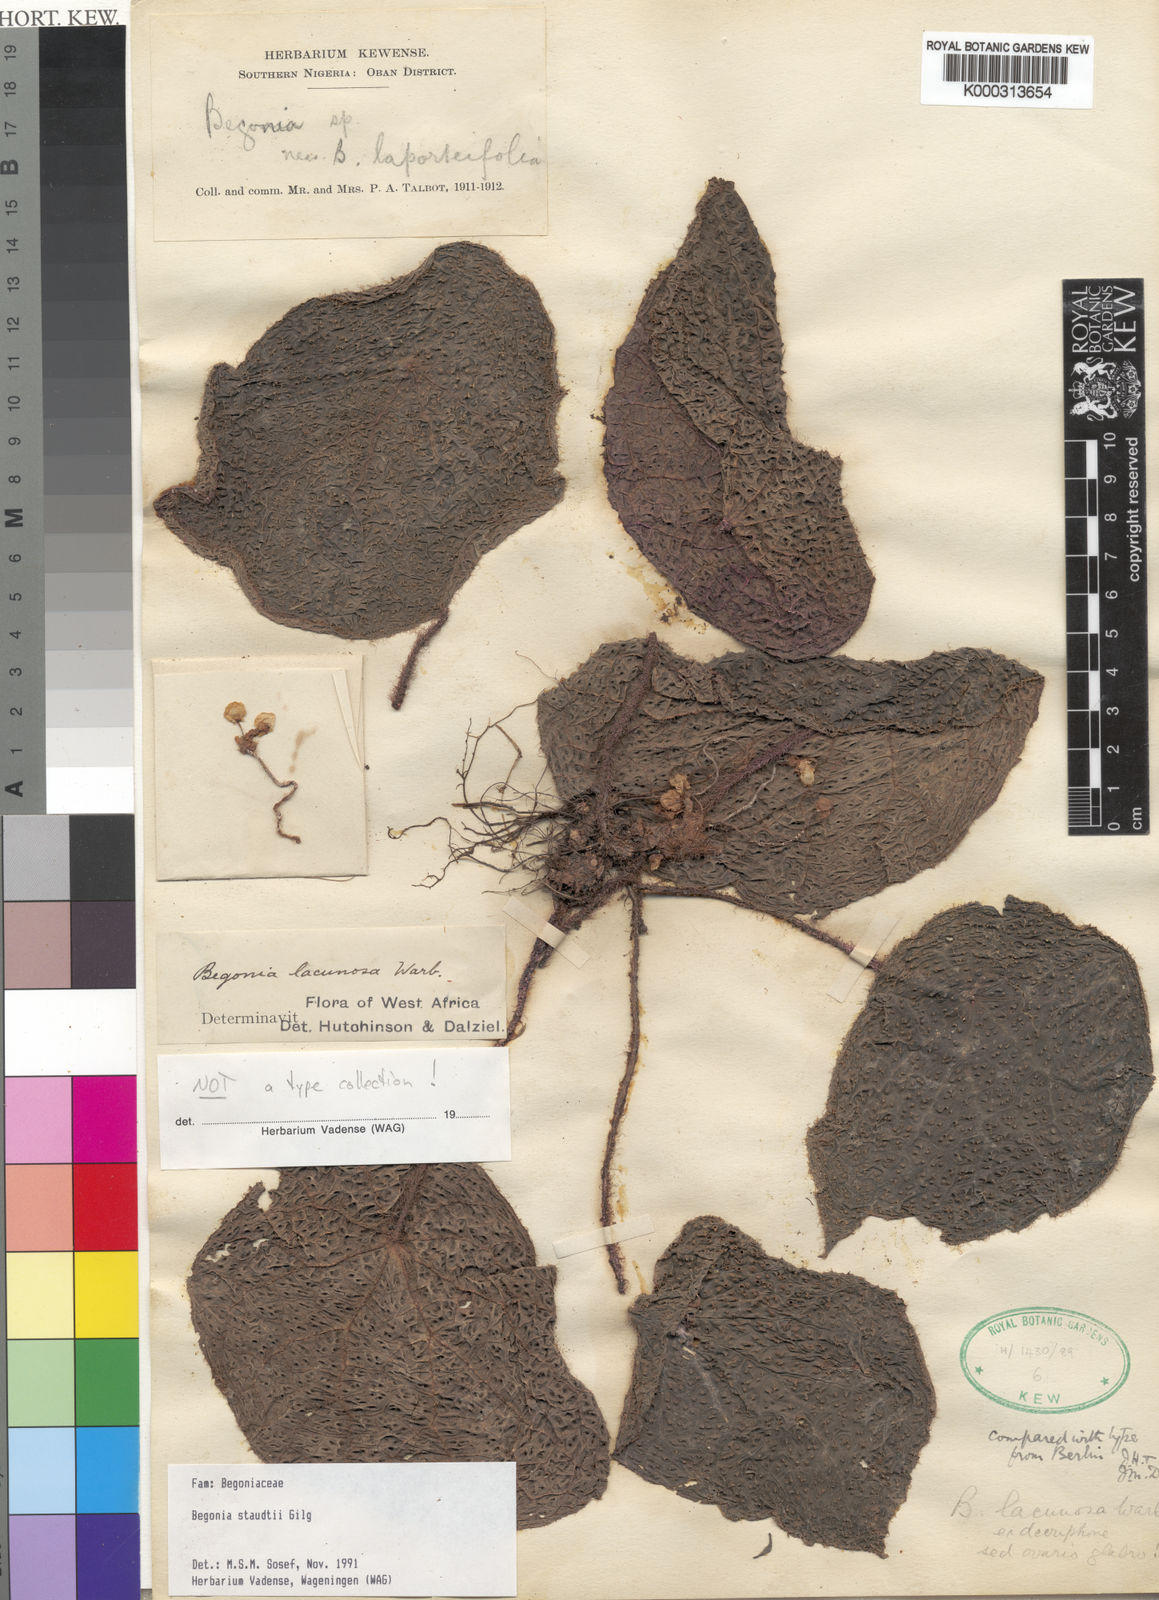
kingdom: Plantae
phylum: Tracheophyta
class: Magnoliopsida
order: Cucurbitales
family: Begoniaceae
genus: Begonia
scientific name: Begonia staudtii
